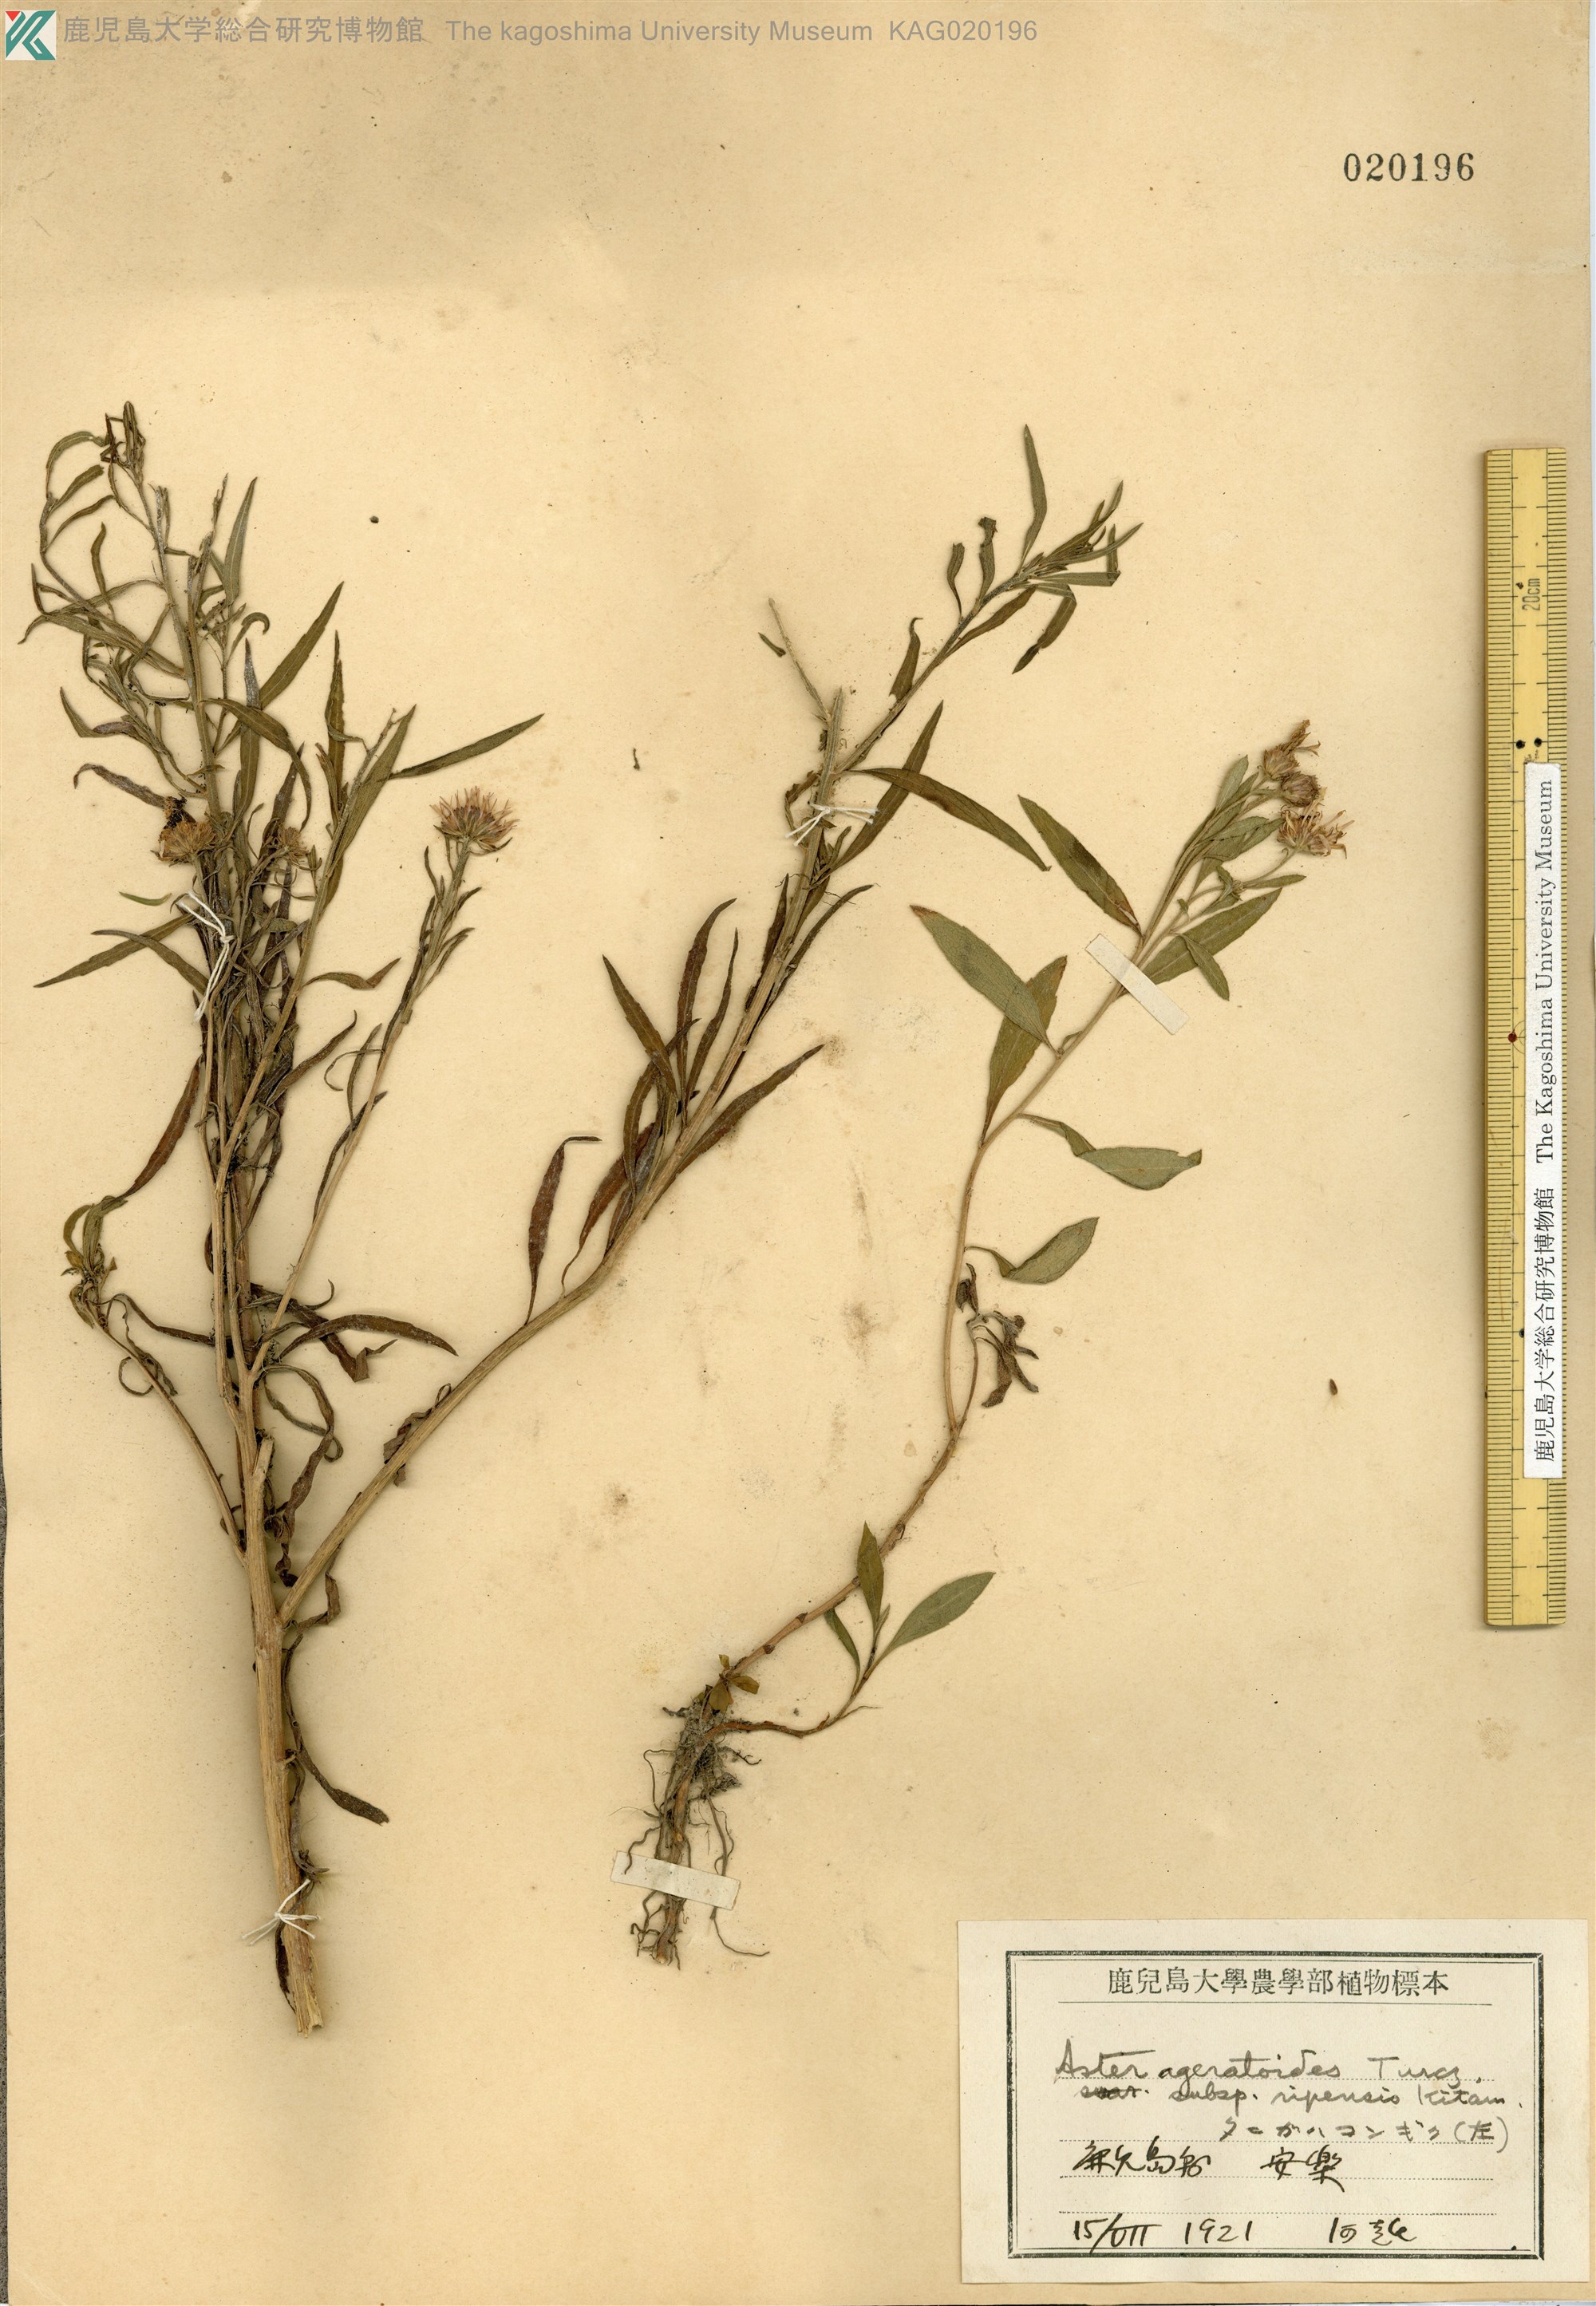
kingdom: Plantae
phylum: Tracheophyta
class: Magnoliopsida
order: Asterales
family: Asteraceae
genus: Aster
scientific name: Aster microcephalus
